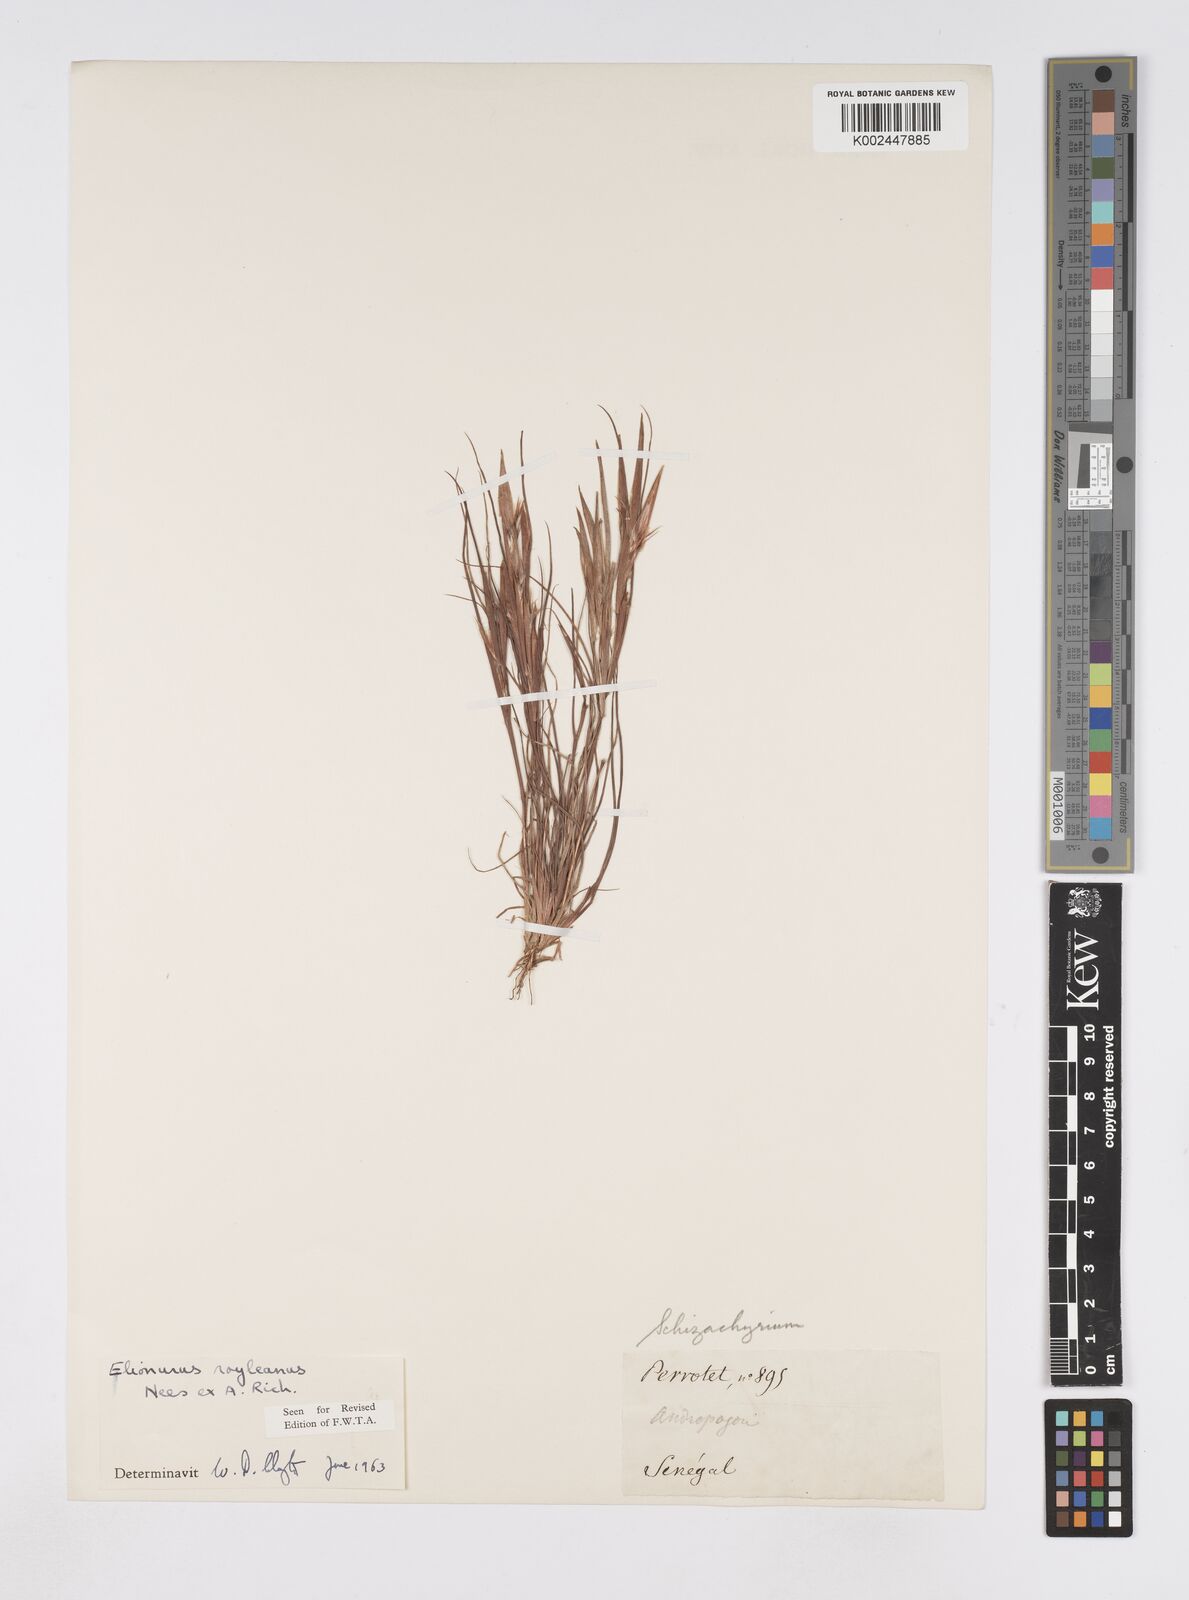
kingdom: Plantae
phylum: Tracheophyta
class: Liliopsida
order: Poales
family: Poaceae
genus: Elionurus
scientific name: Elionurus royleanus
